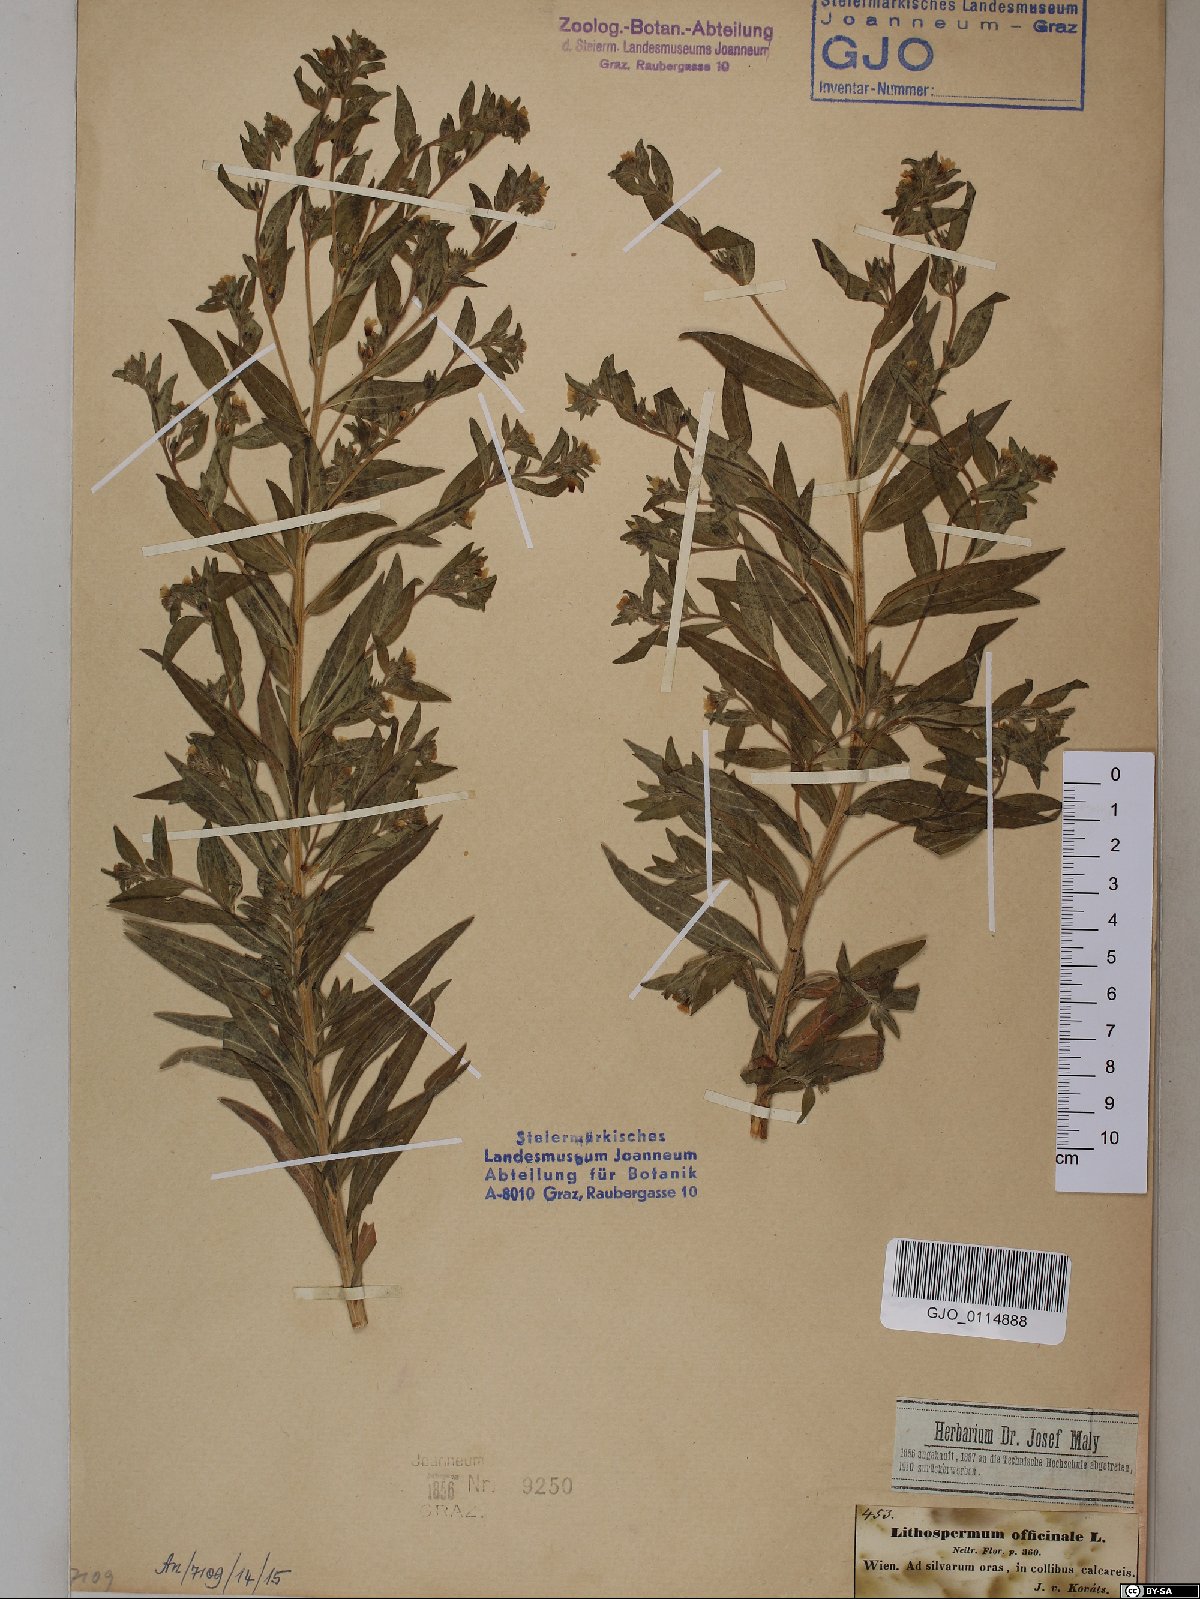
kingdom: Plantae
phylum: Tracheophyta
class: Magnoliopsida
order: Boraginales
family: Boraginaceae
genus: Lithospermum
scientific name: Lithospermum officinale
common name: Common gromwell
